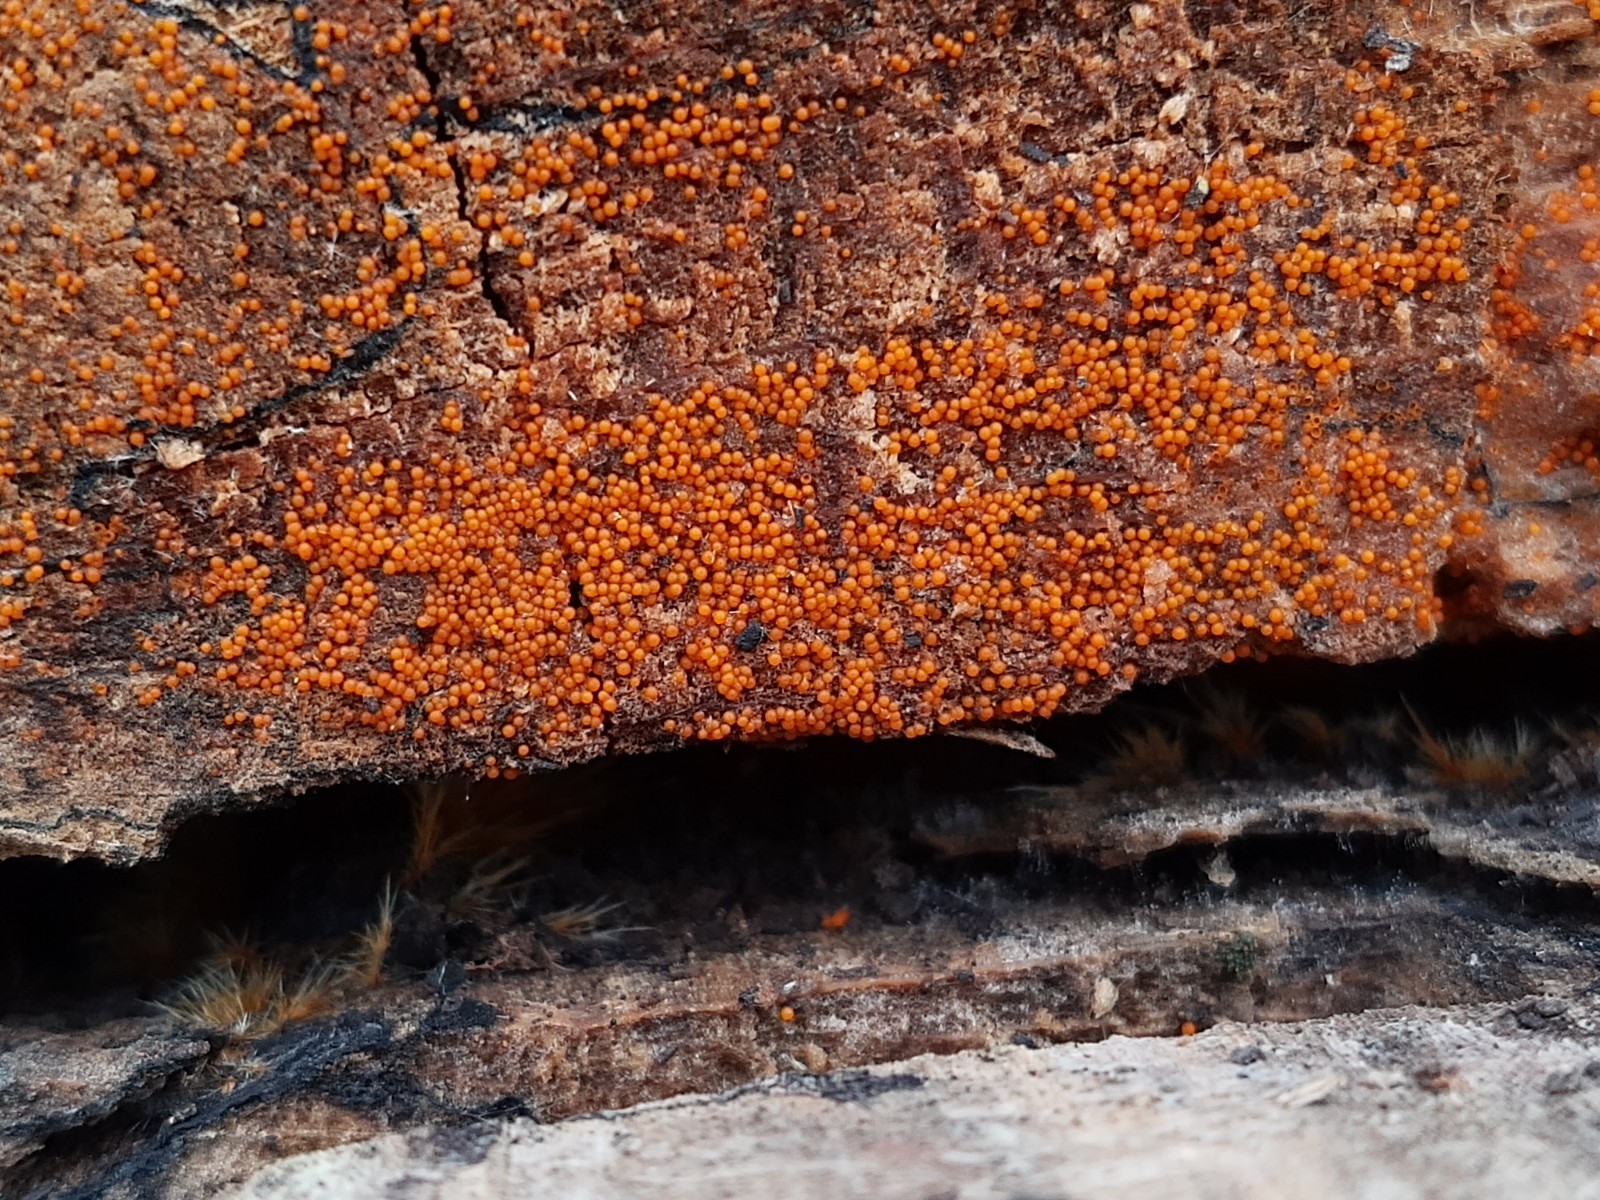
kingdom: Fungi
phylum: Ascomycota
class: Sordariomycetes
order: Hypocreales
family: Nectriaceae
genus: Hydropisphaera
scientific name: Hydropisphaera peziza
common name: skålformet gyldenkerne
